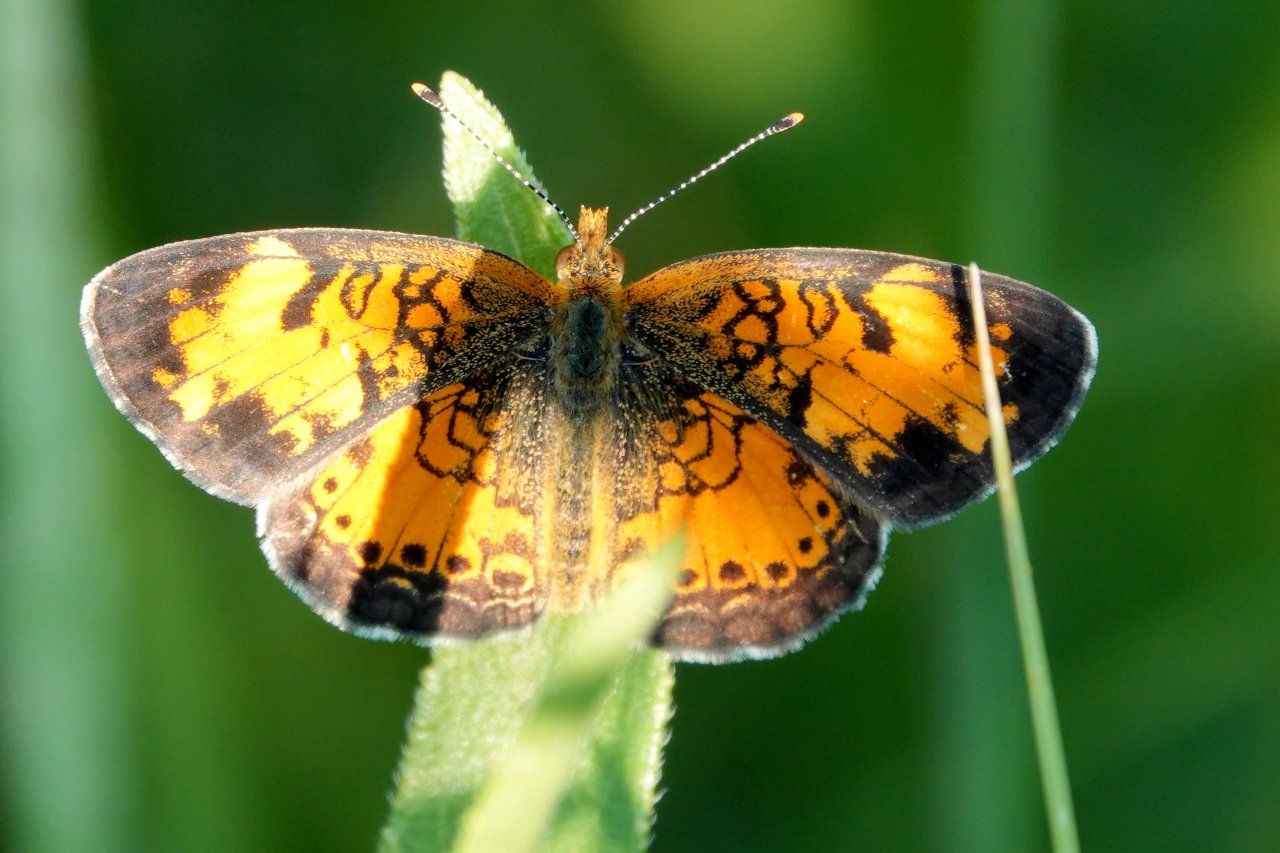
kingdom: Animalia
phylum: Arthropoda
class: Insecta
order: Lepidoptera
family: Nymphalidae
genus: Phyciodes
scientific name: Phyciodes tharos
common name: Northern Crescent
